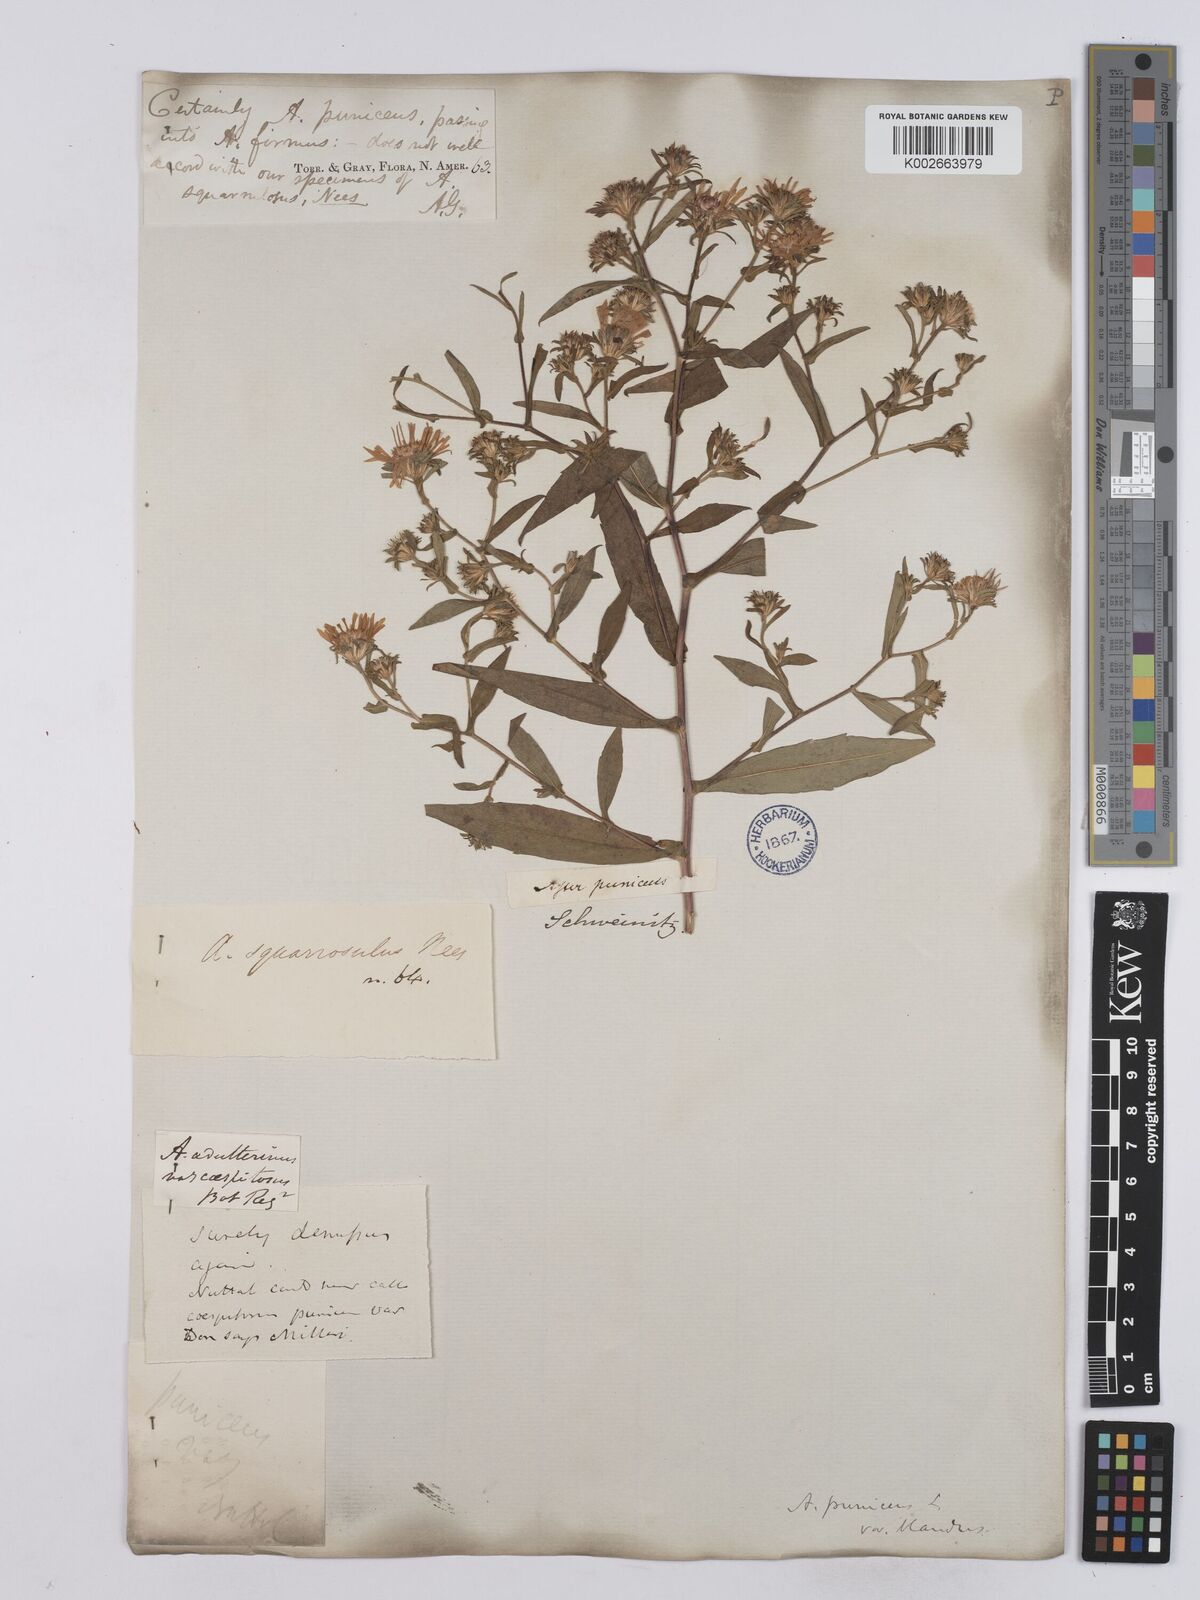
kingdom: Plantae
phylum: Tracheophyta
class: Magnoliopsida
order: Asterales
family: Asteraceae
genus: Symphyotrichum
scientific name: Symphyotrichum puniceum
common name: Bog aster
